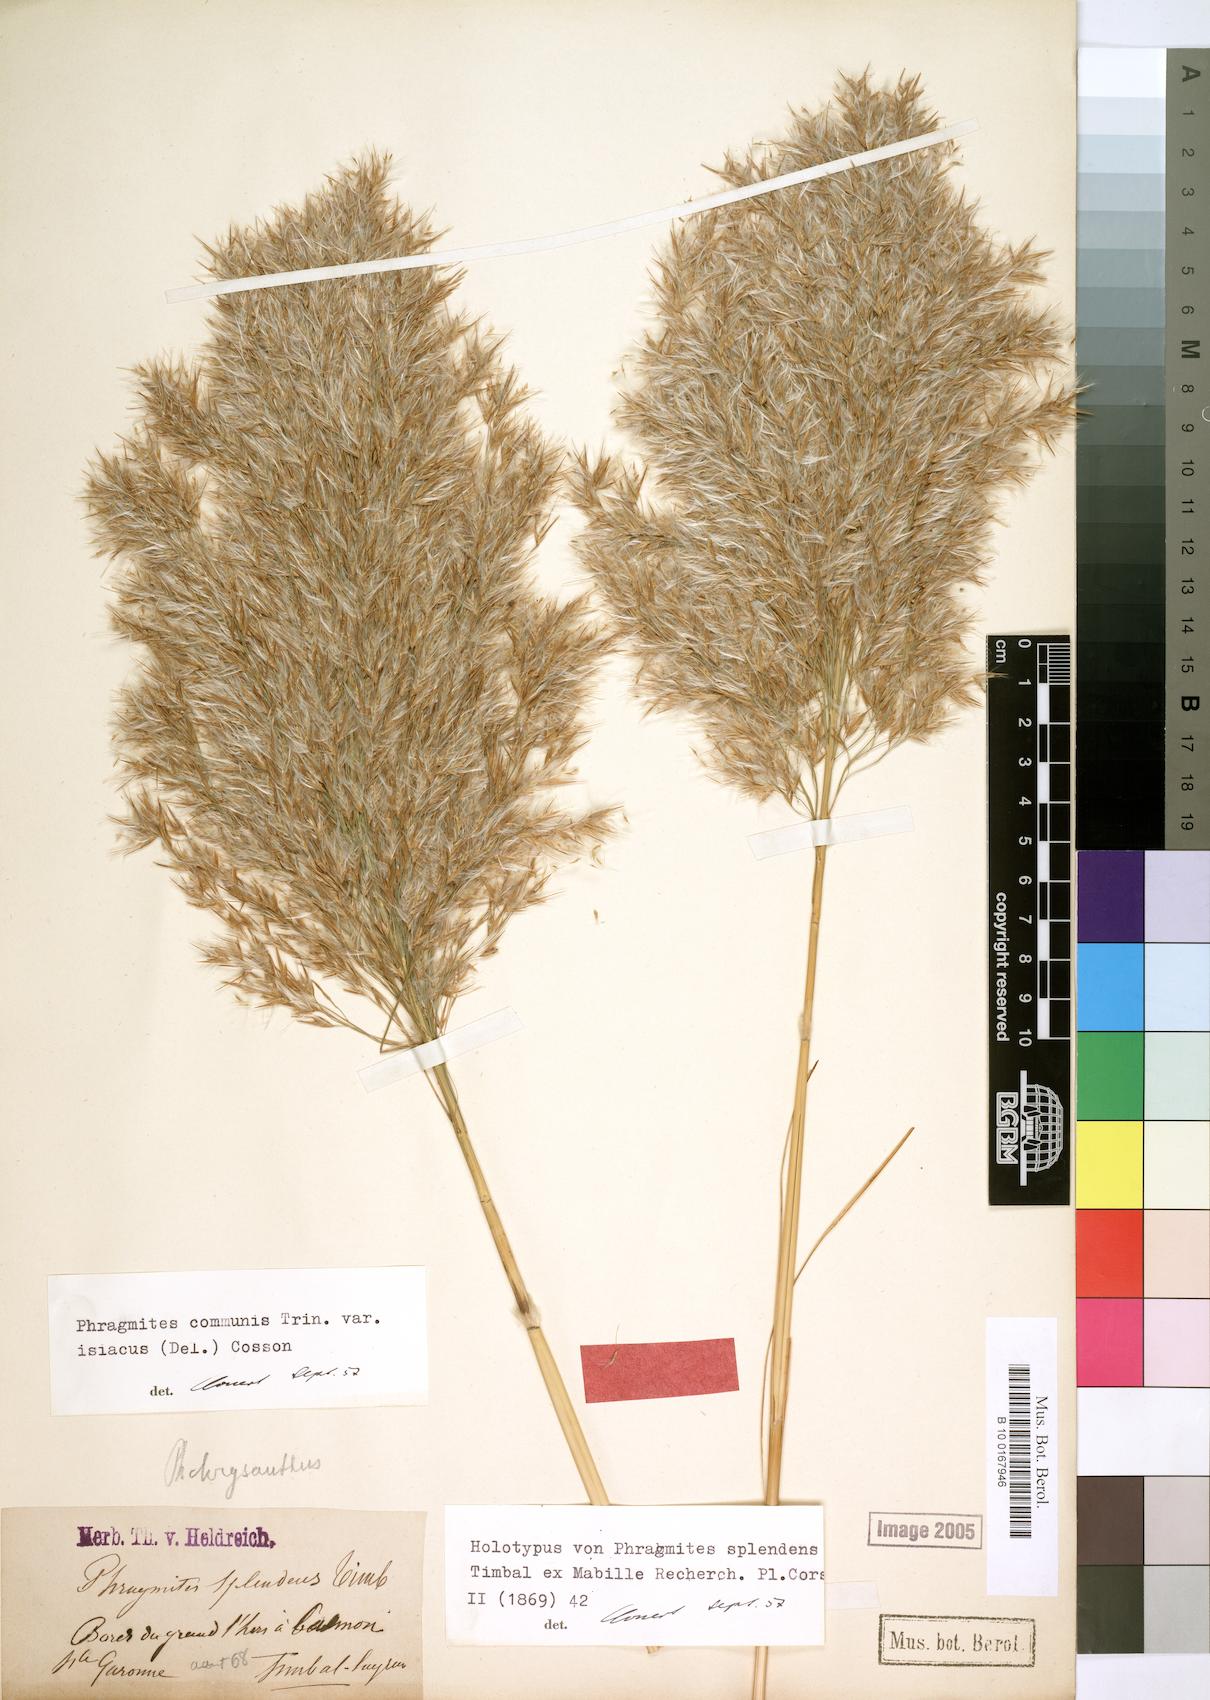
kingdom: Plantae
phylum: Tracheophyta
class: Liliopsida
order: Poales
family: Poaceae
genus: Phragmites
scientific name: Phragmites australis
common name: Common reed
